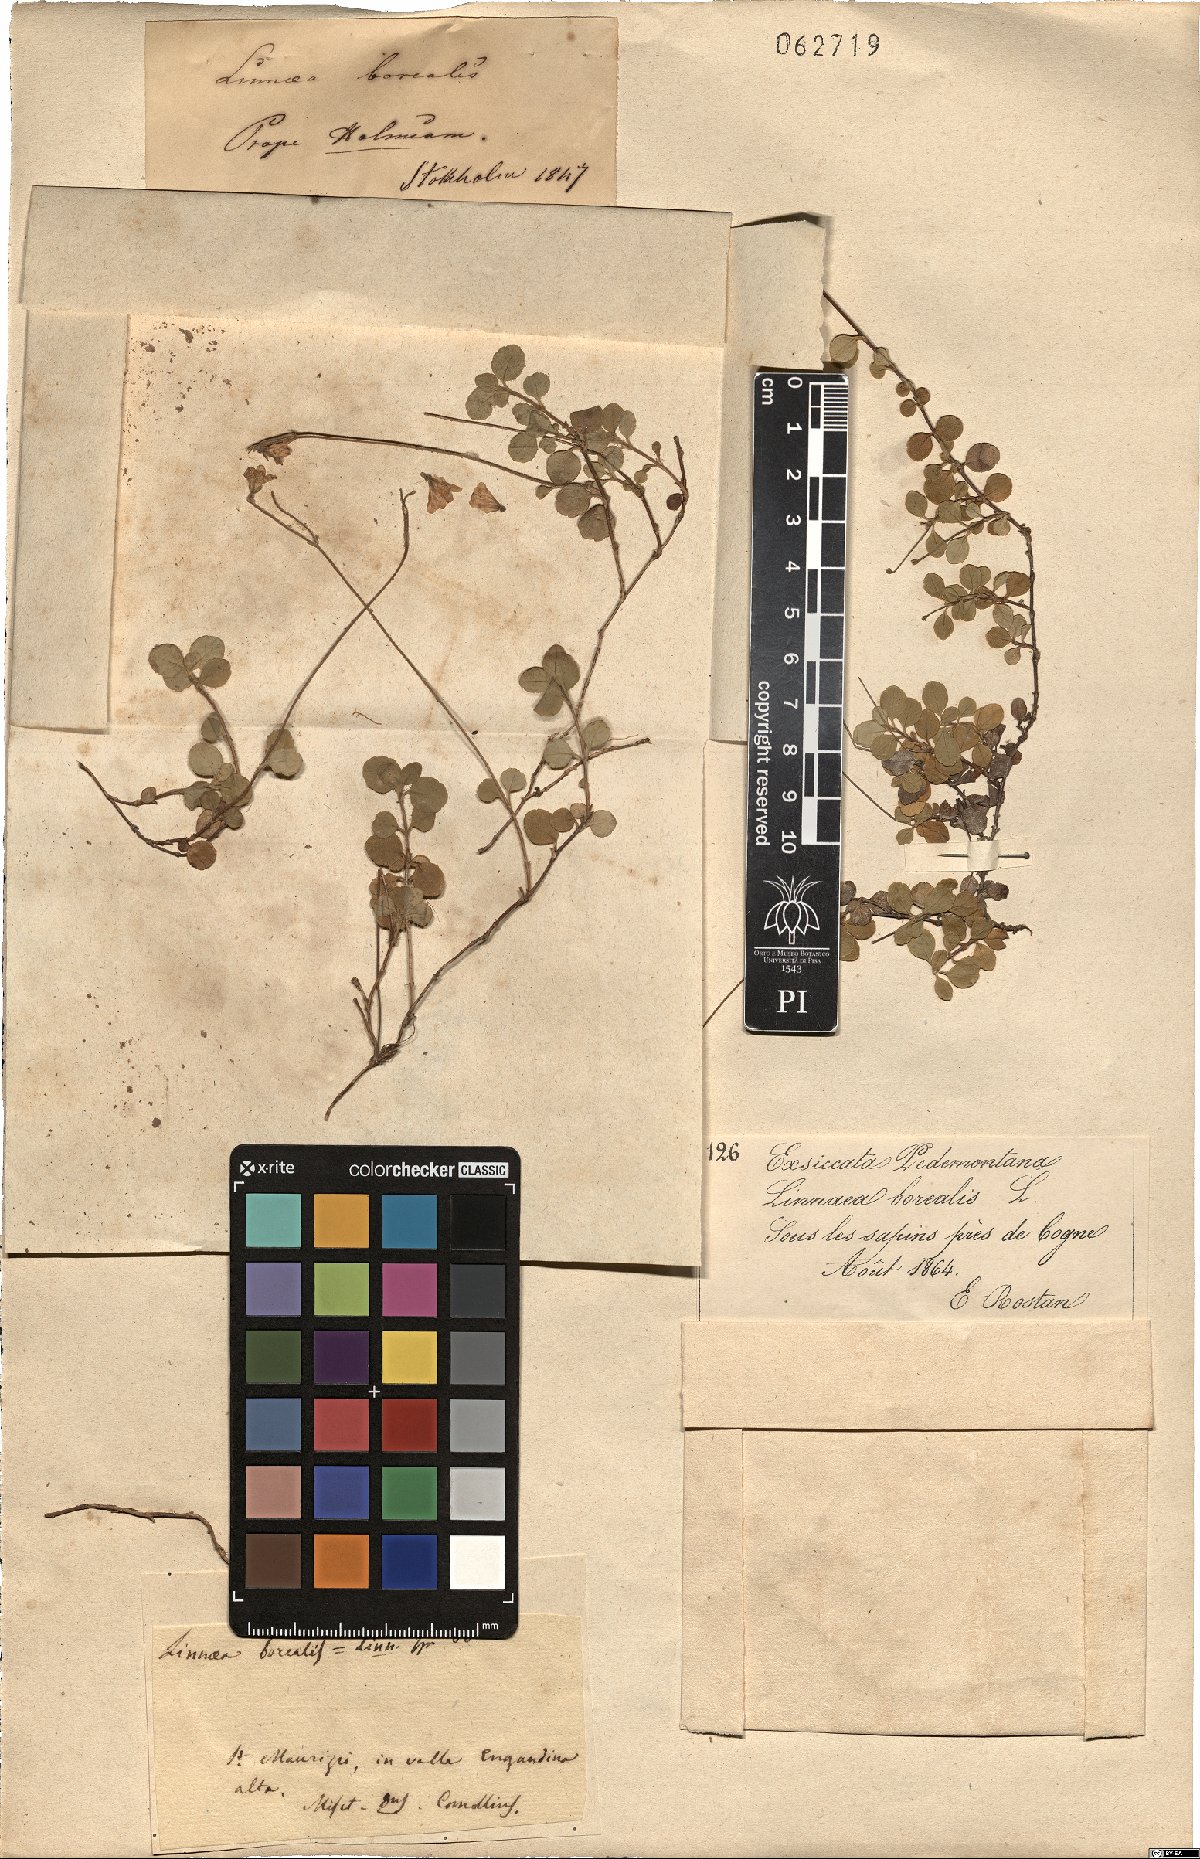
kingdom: Plantae
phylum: Tracheophyta
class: Magnoliopsida
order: Dipsacales
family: Caprifoliaceae
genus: Linnaea
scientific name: Linnaea borealis
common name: Twinflower
